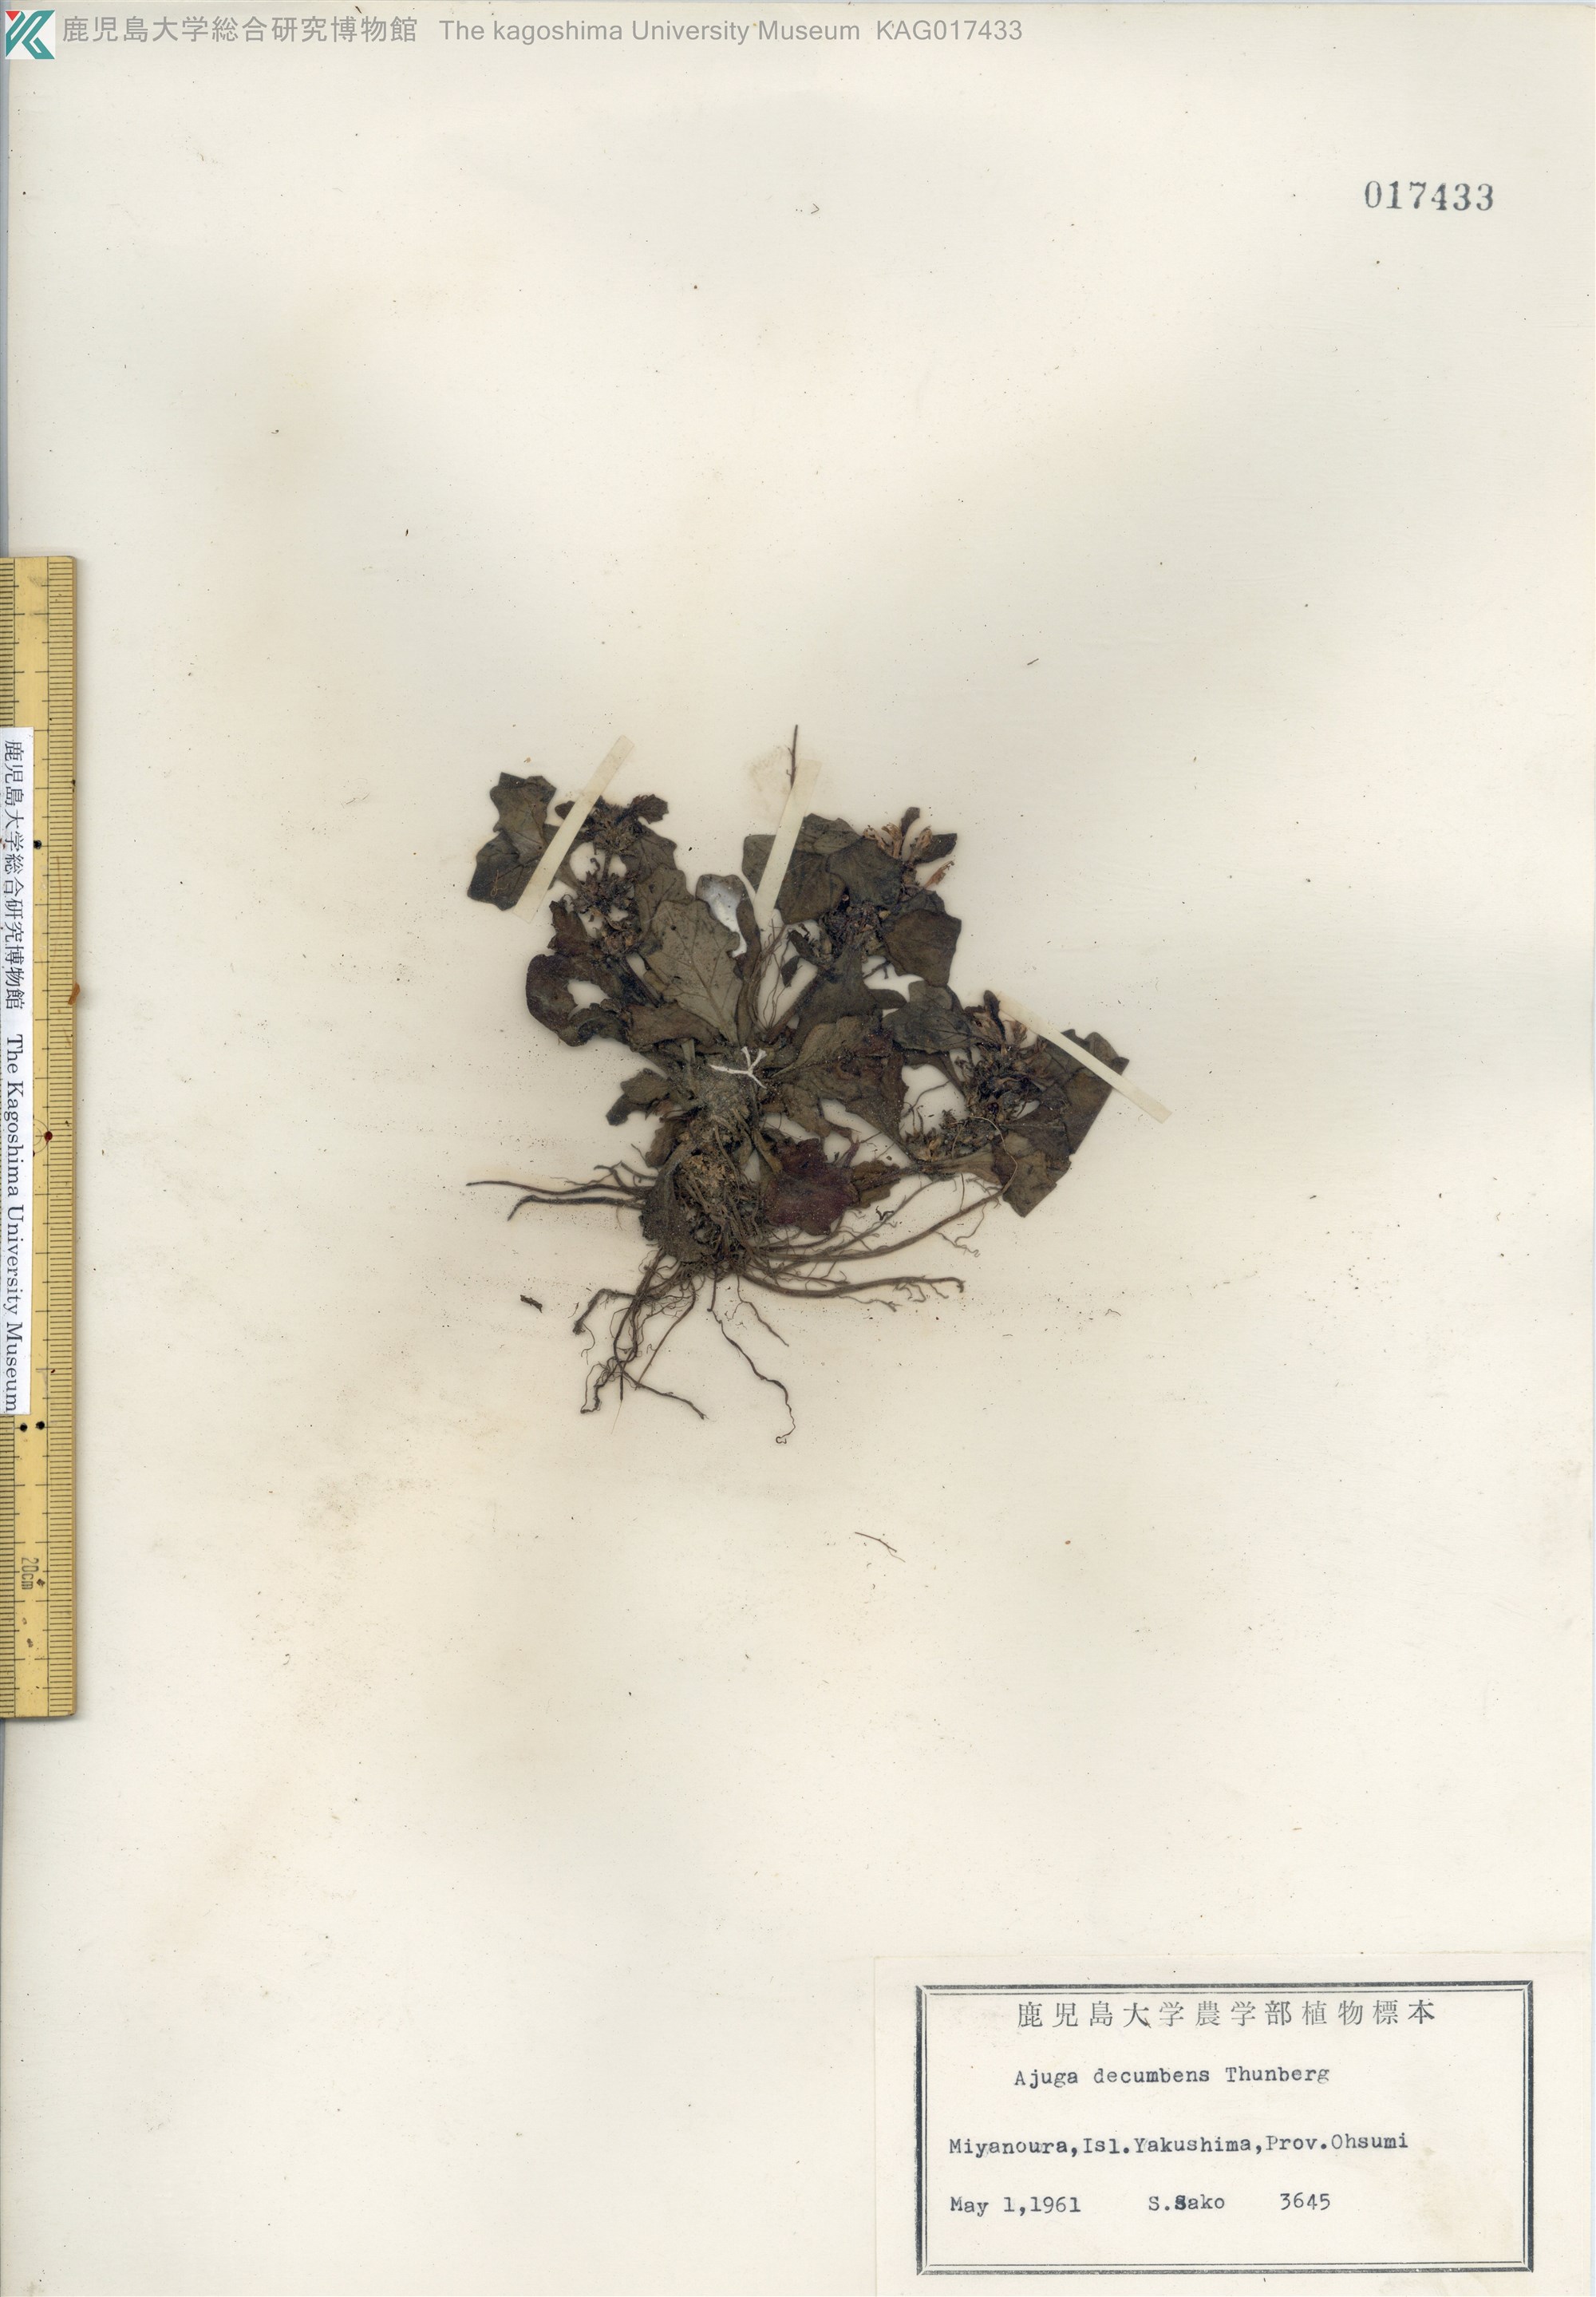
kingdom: Plantae
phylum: Tracheophyta
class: Magnoliopsida
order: Lamiales
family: Lamiaceae
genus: Ajuga
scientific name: Ajuga decumbens
